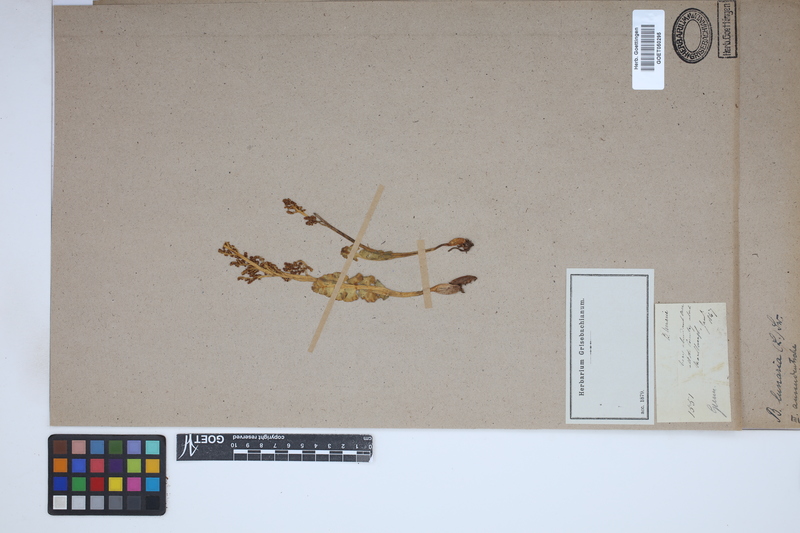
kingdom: Plantae
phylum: Tracheophyta
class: Polypodiopsida
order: Ophioglossales
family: Ophioglossaceae
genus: Botrychium
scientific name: Botrychium lunaria
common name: Moonwort
